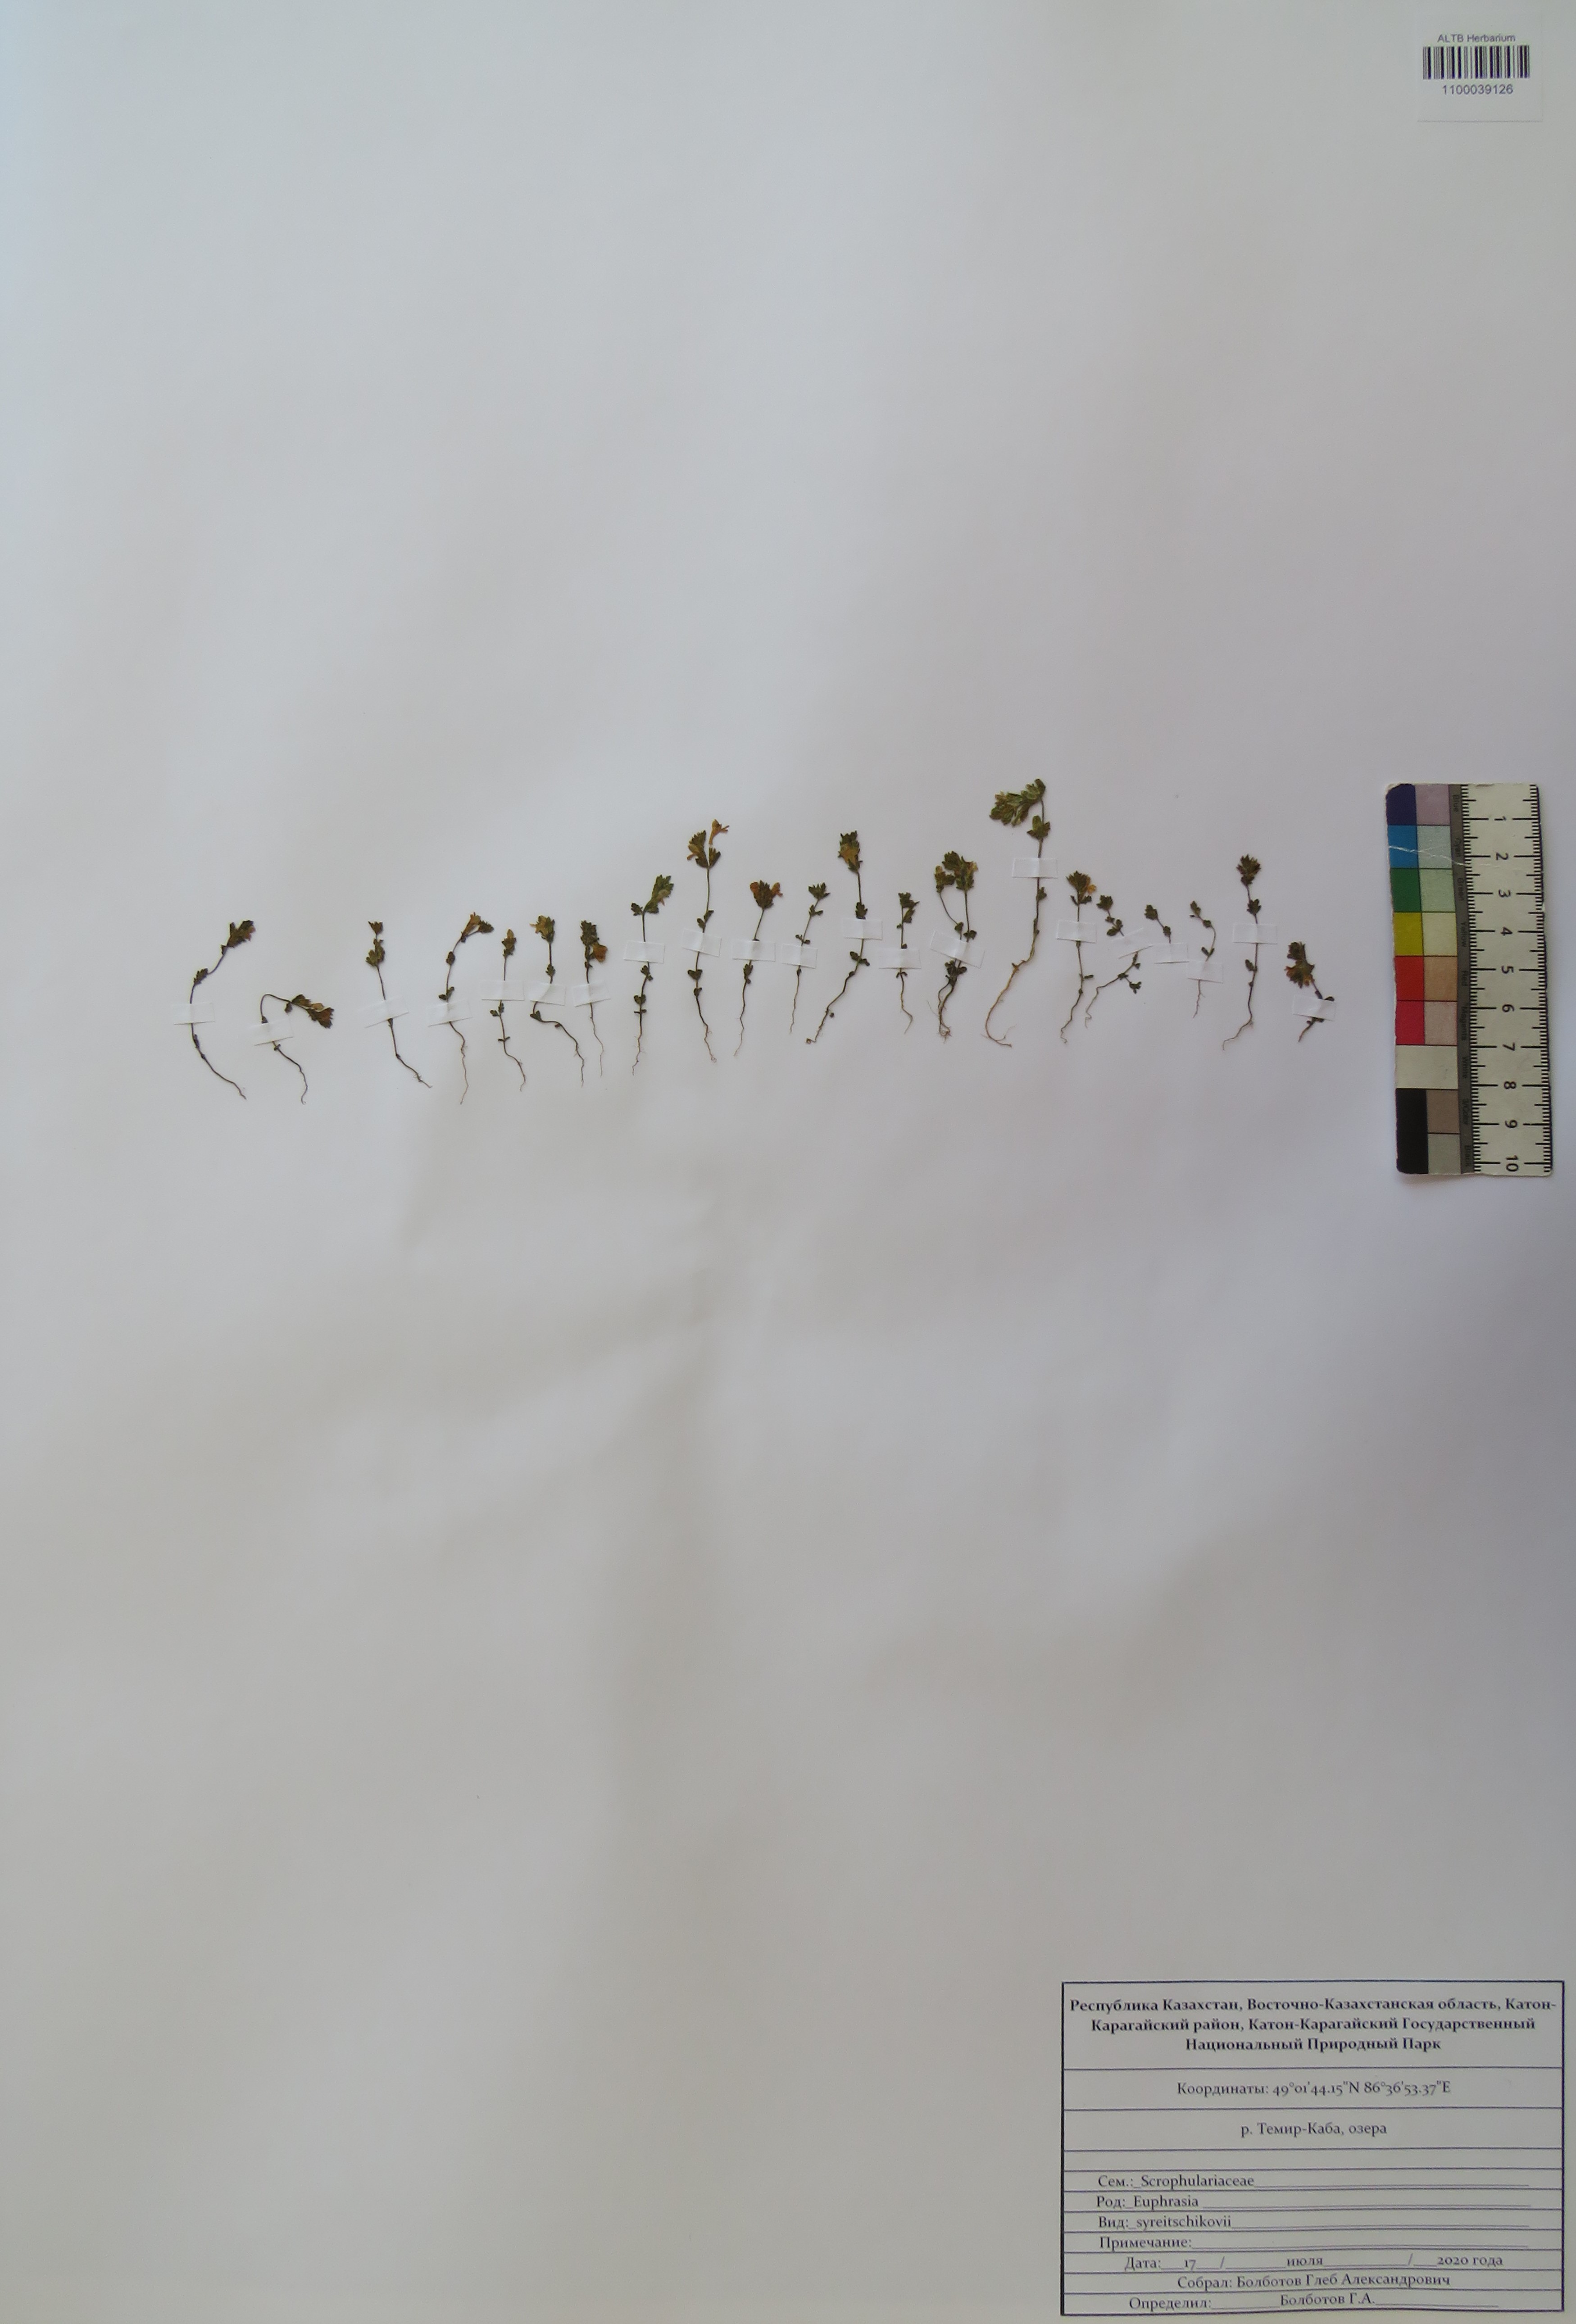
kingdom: Plantae
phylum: Tracheophyta
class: Magnoliopsida
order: Lamiales
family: Orobanchaceae
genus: Euphrasia
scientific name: Euphrasia syreitschikovii
